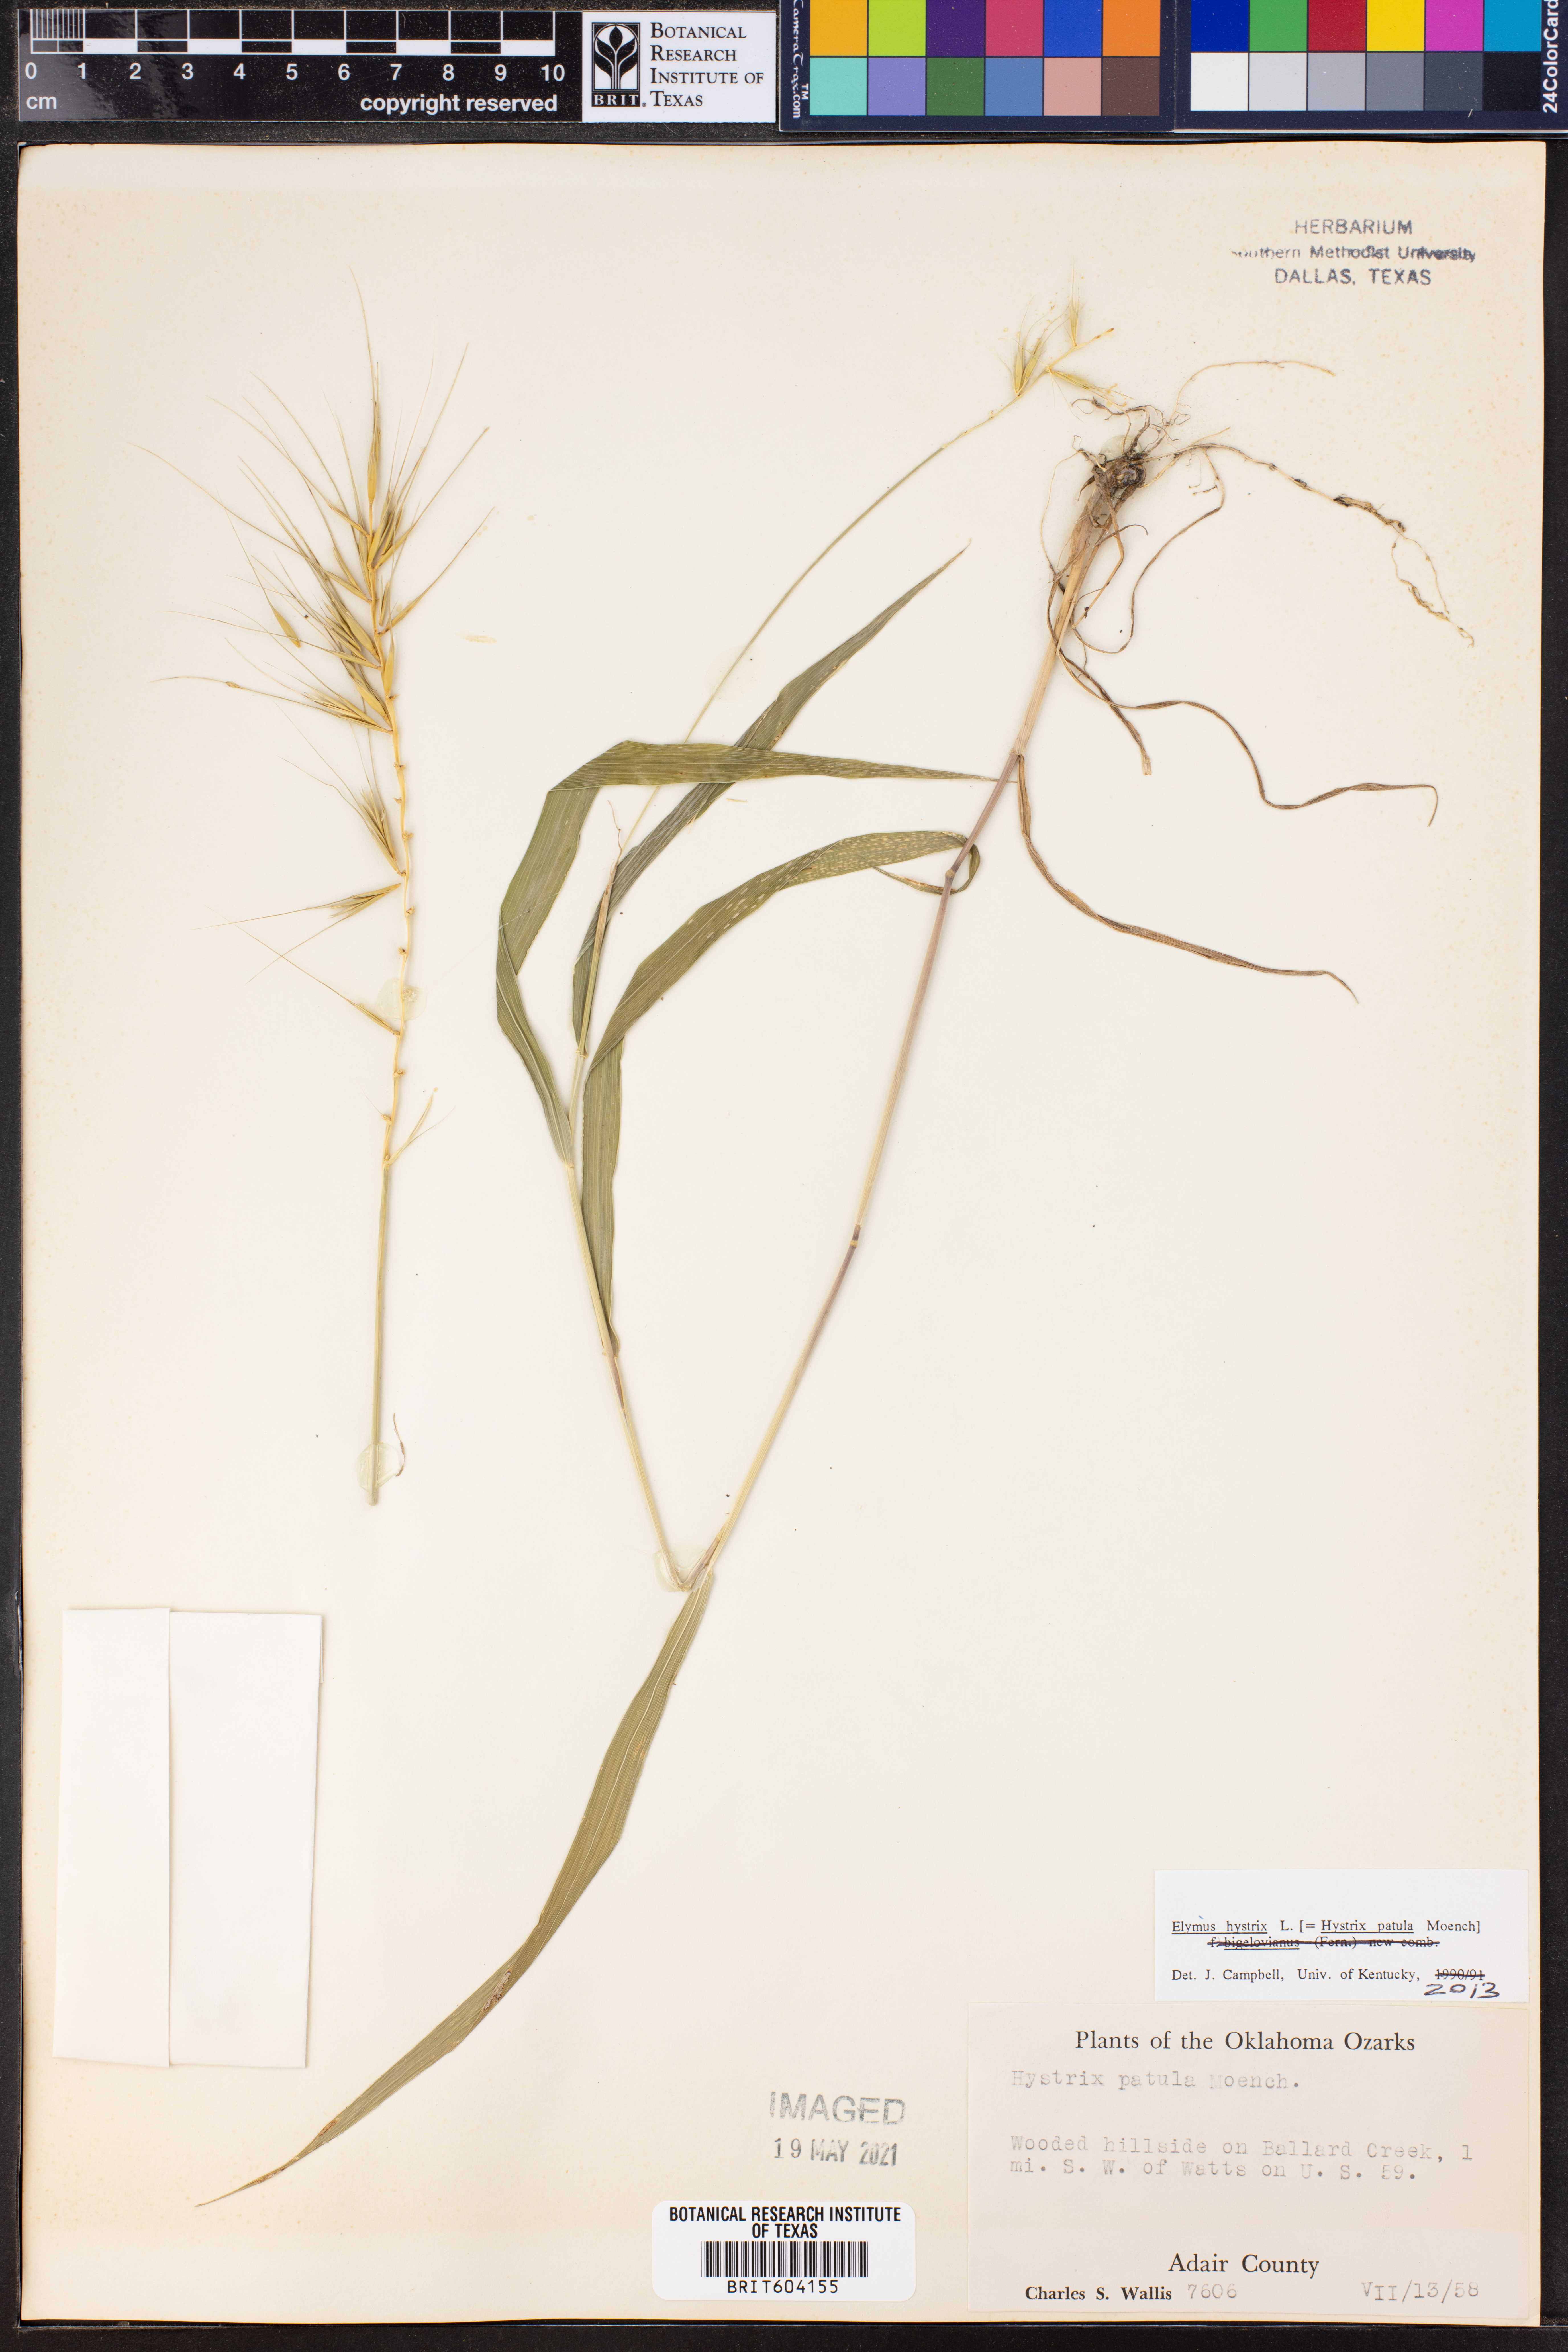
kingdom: Plantae
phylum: Tracheophyta
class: Liliopsida
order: Poales
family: Poaceae
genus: Elymus
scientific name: Elymus hystrix
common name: Bottlebrush grass
